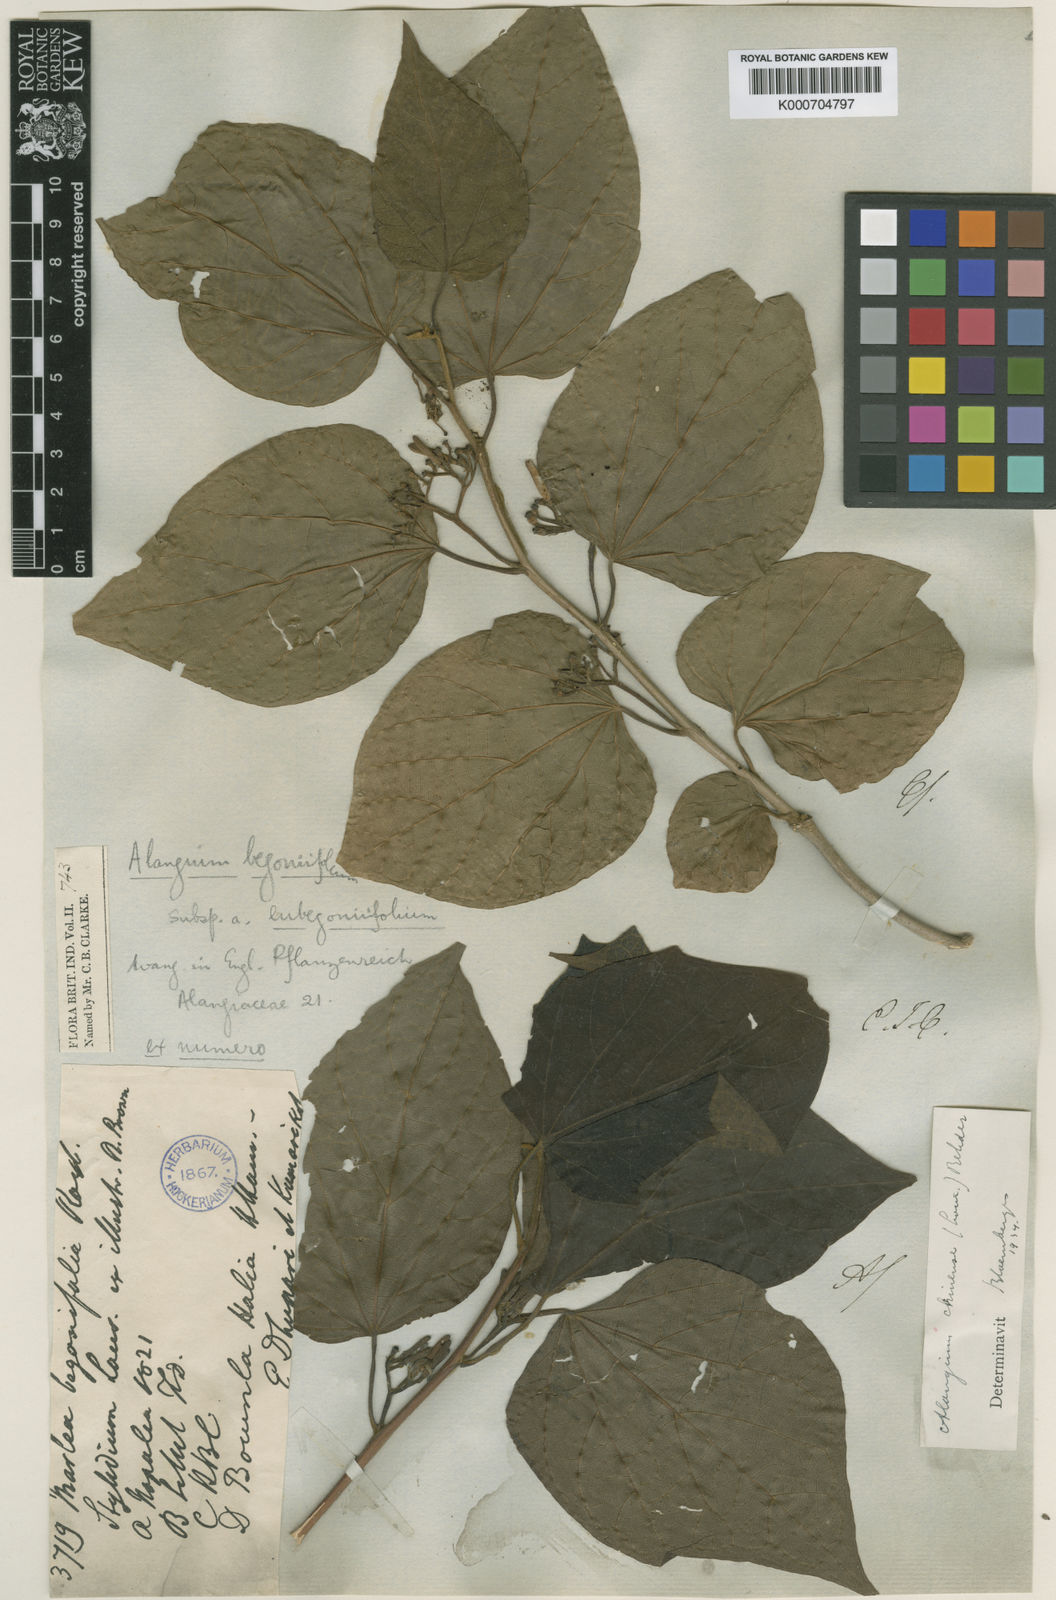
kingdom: Plantae
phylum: Tracheophyta
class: Magnoliopsida
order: Cornales
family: Cornaceae
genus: Alangium
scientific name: Alangium chinense
